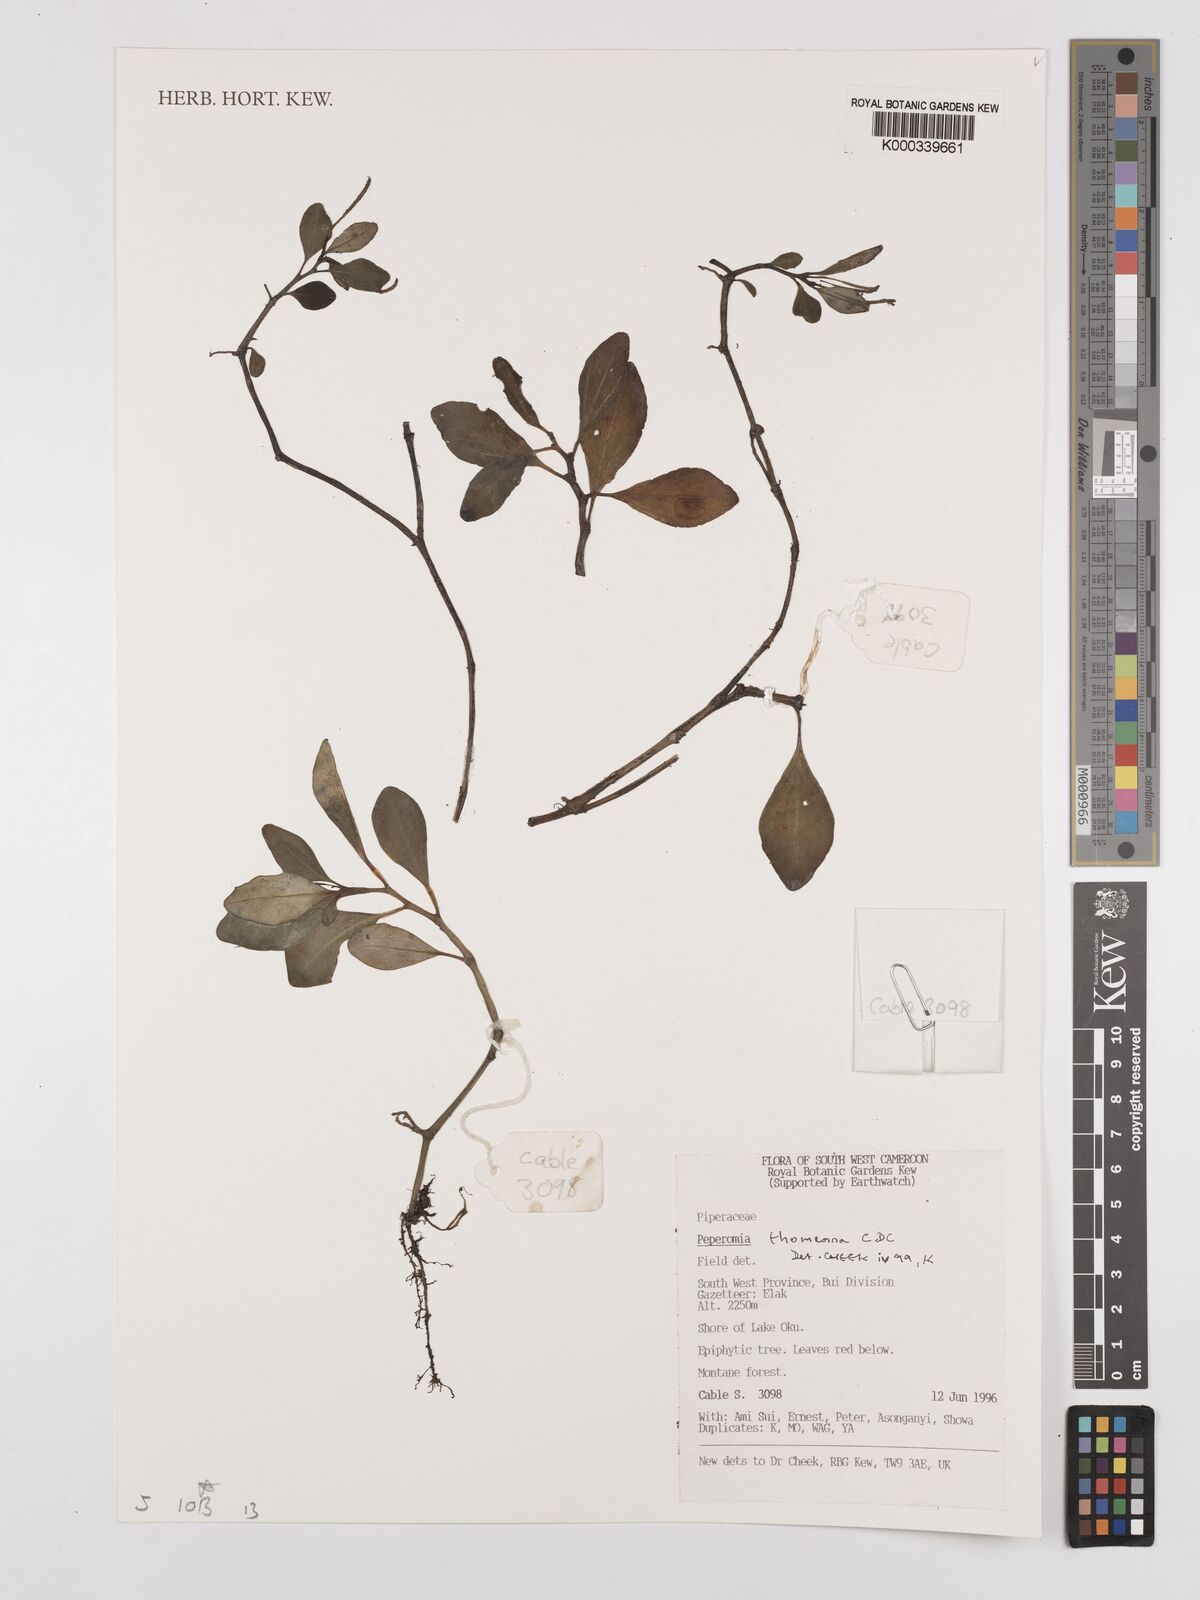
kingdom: Plantae
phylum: Tracheophyta
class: Magnoliopsida
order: Piperales
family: Piperaceae
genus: Peperomia
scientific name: Peperomia thomeana
